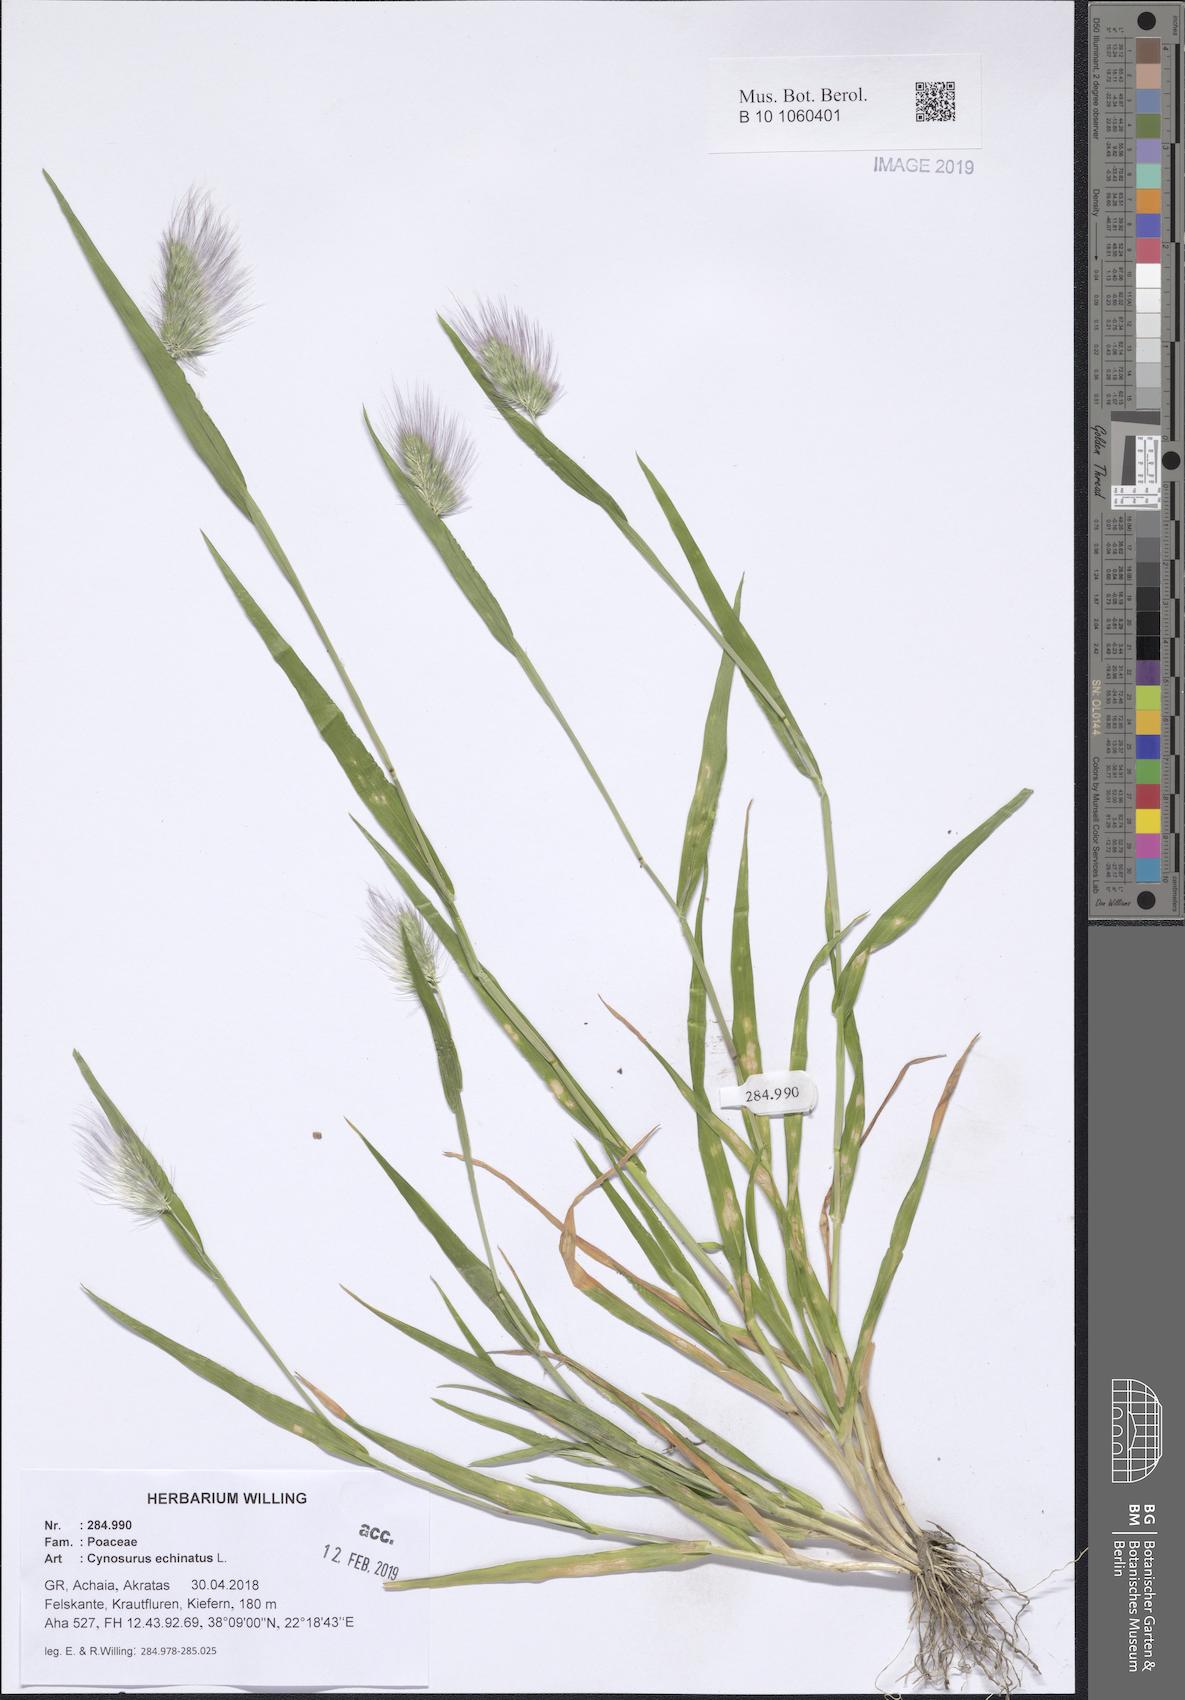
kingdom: Plantae
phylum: Tracheophyta
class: Liliopsida
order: Poales
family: Poaceae
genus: Cynosurus
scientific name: Cynosurus echinatus
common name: Rough dog's-tail
